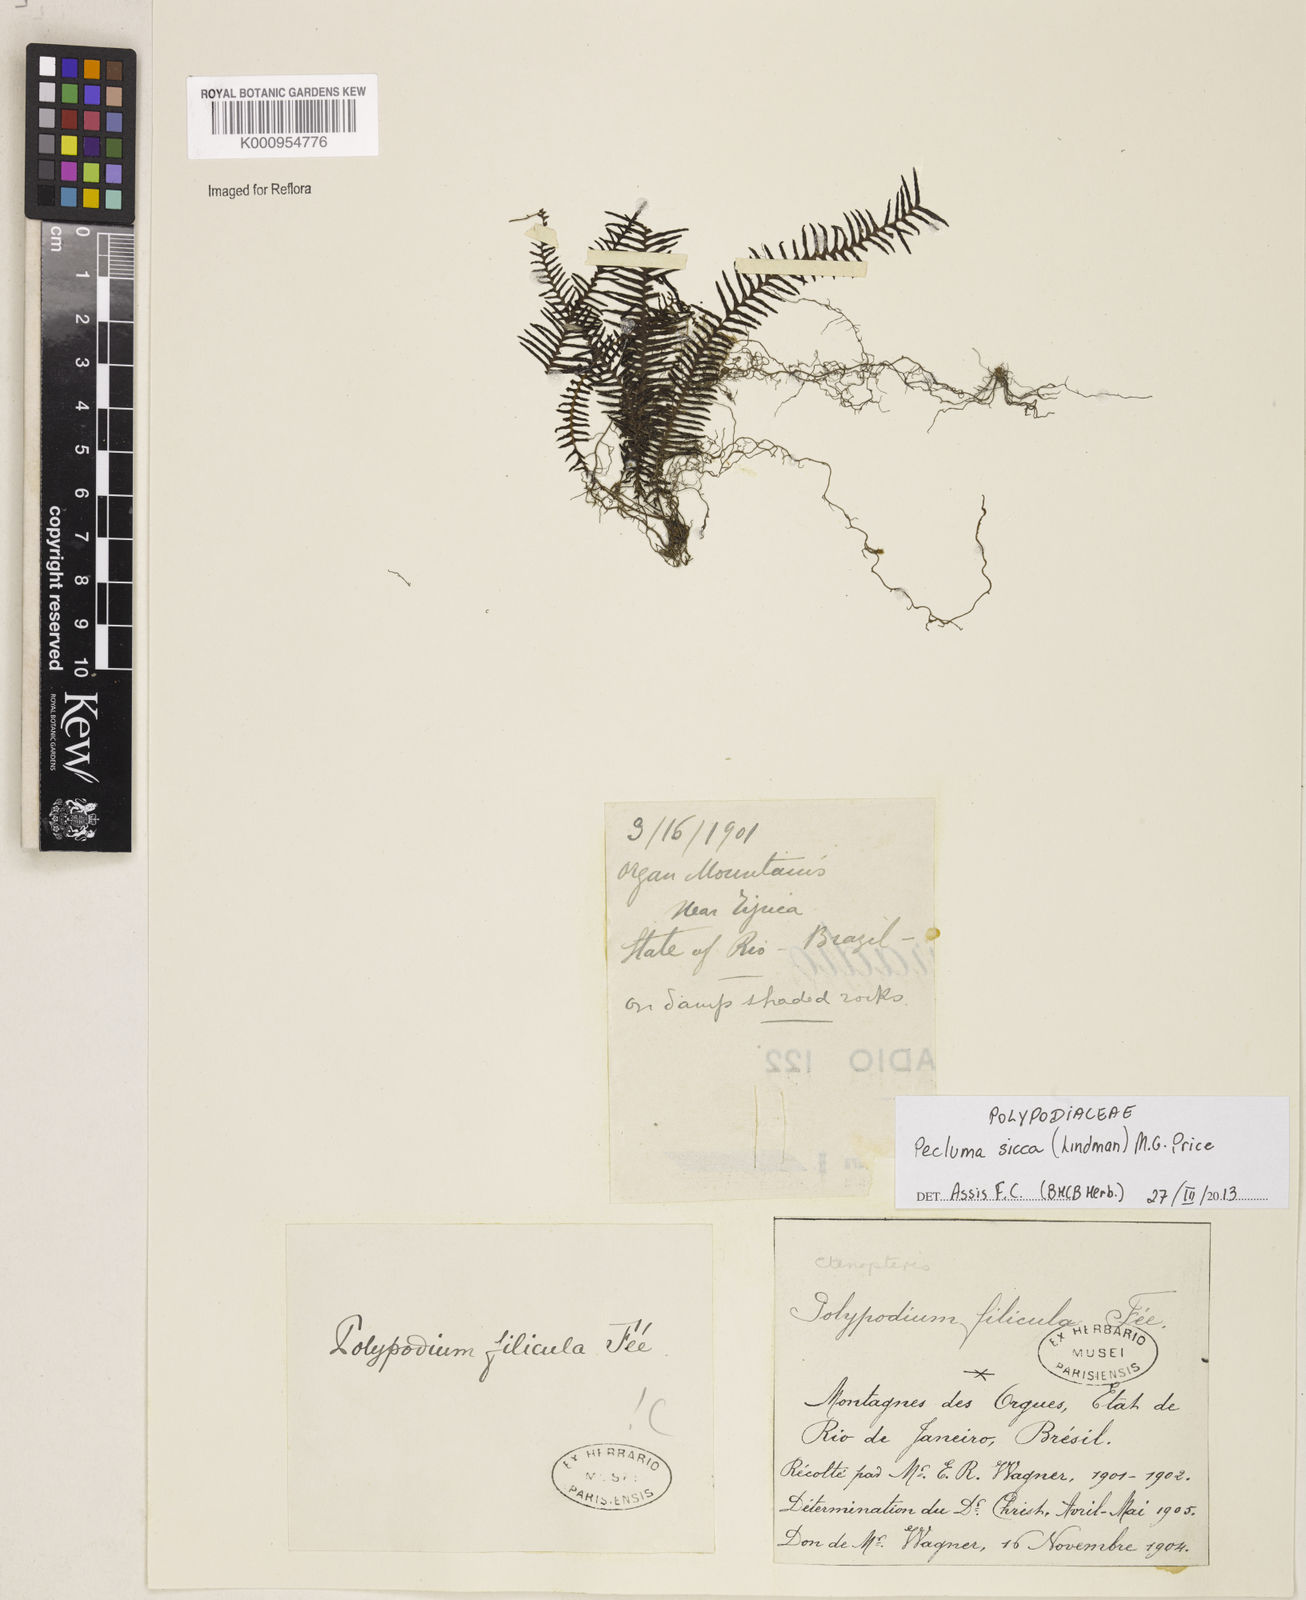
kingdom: Plantae
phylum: Tracheophyta
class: Polypodiopsida
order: Polypodiales
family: Polypodiaceae
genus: Pecluma
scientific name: Pecluma sicca
